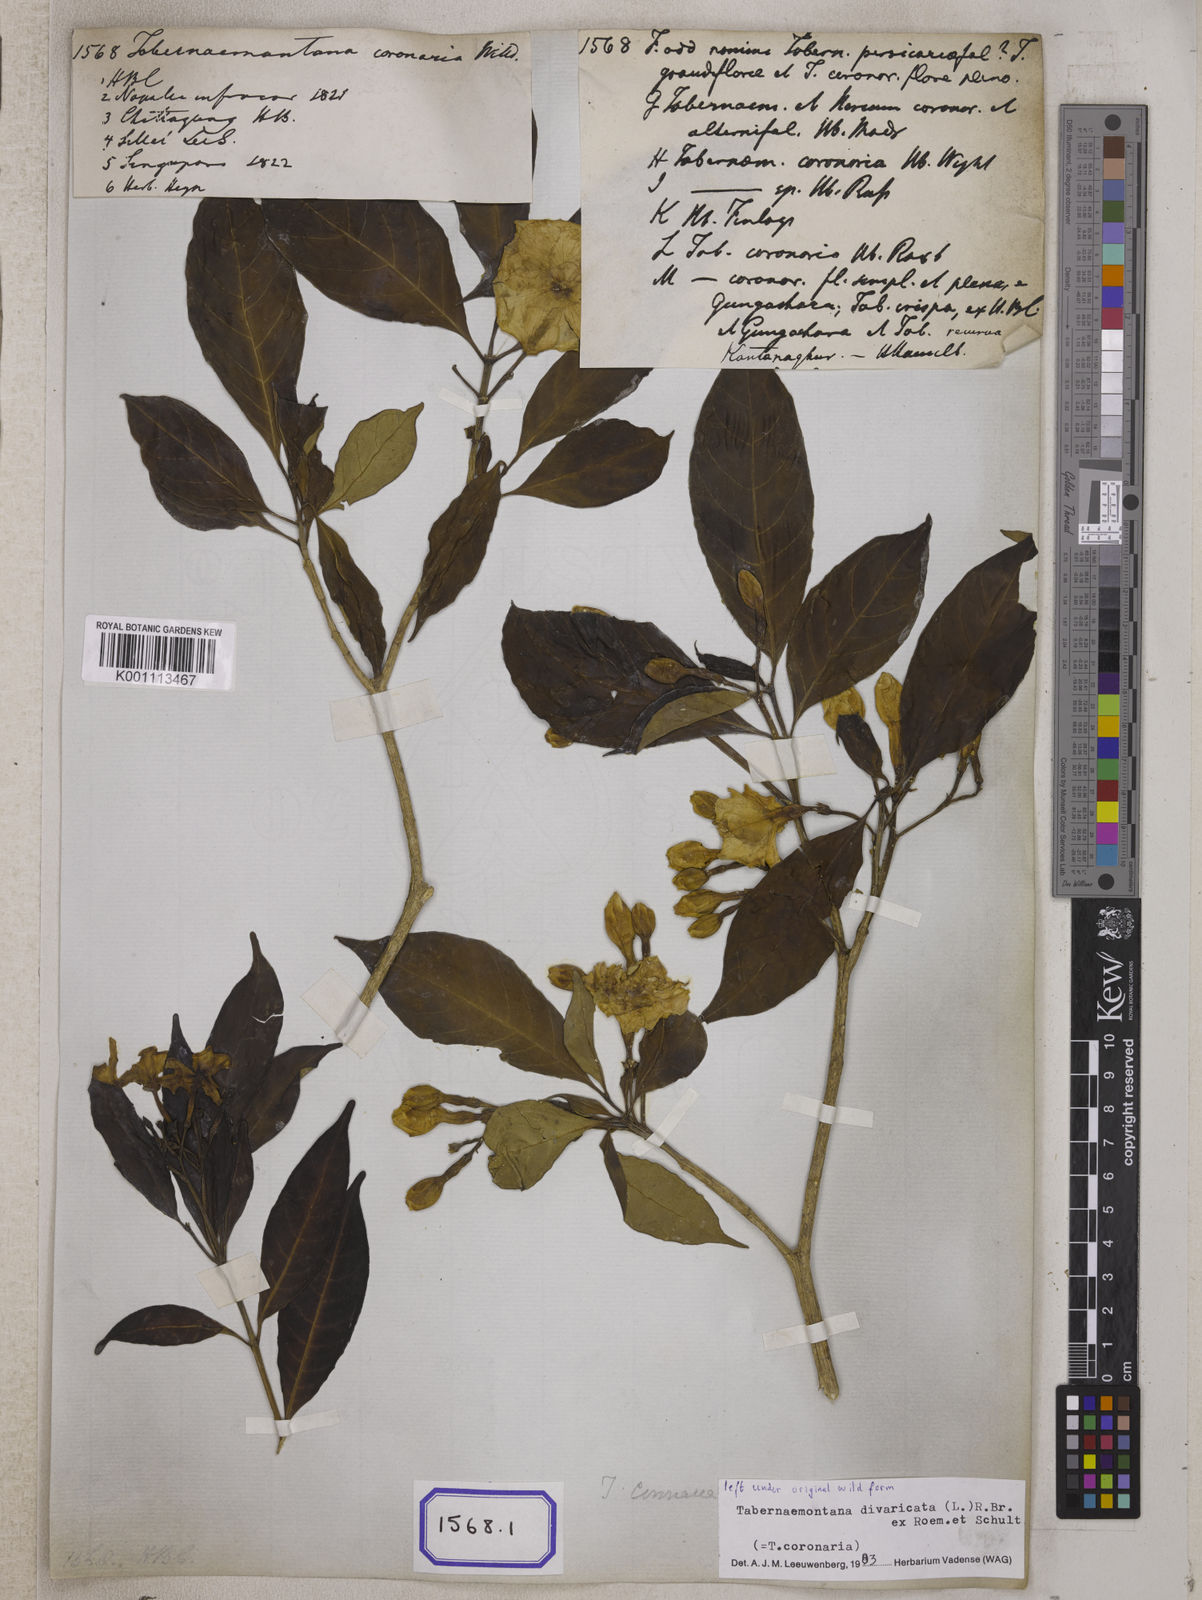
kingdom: Plantae
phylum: Tracheophyta
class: Magnoliopsida
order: Gentianales
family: Apocynaceae
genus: Tabernaemontana
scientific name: Tabernaemontana divaricata
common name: Pinwheelflower
